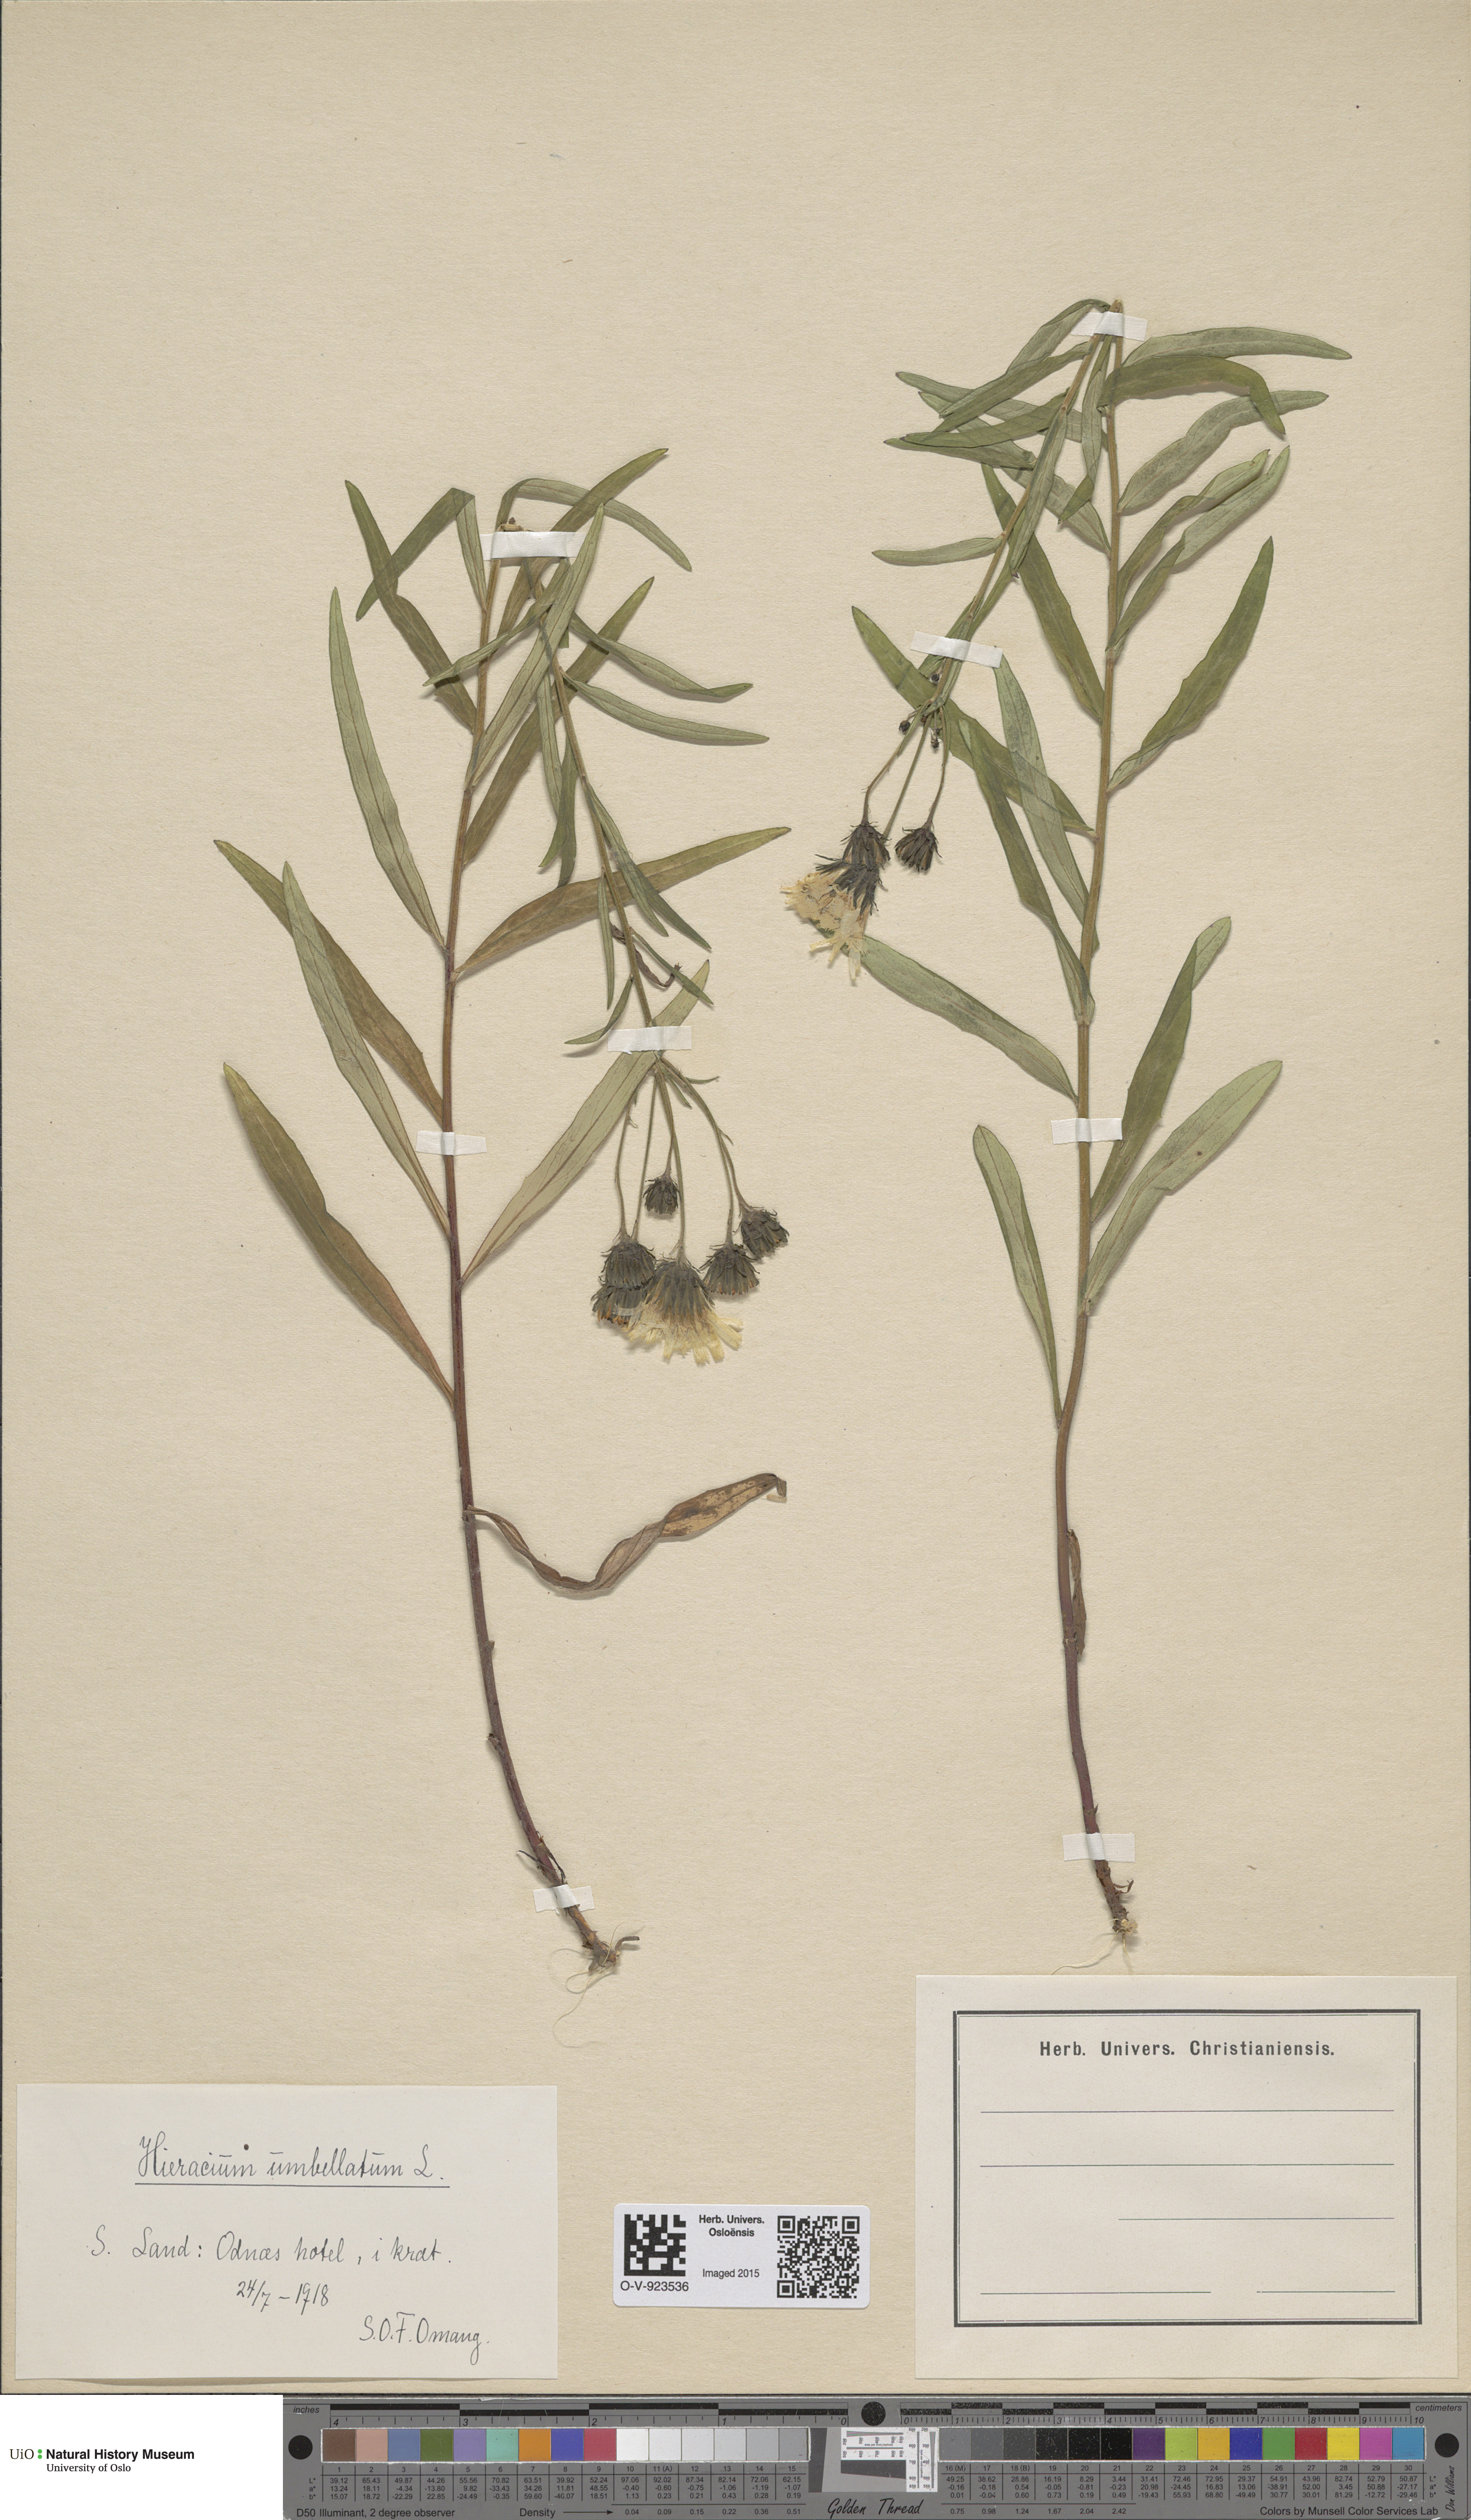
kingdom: Plantae
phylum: Tracheophyta
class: Magnoliopsida
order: Asterales
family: Asteraceae
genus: Hieracium
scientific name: Hieracium umbellatum
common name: Northern hawkweed
